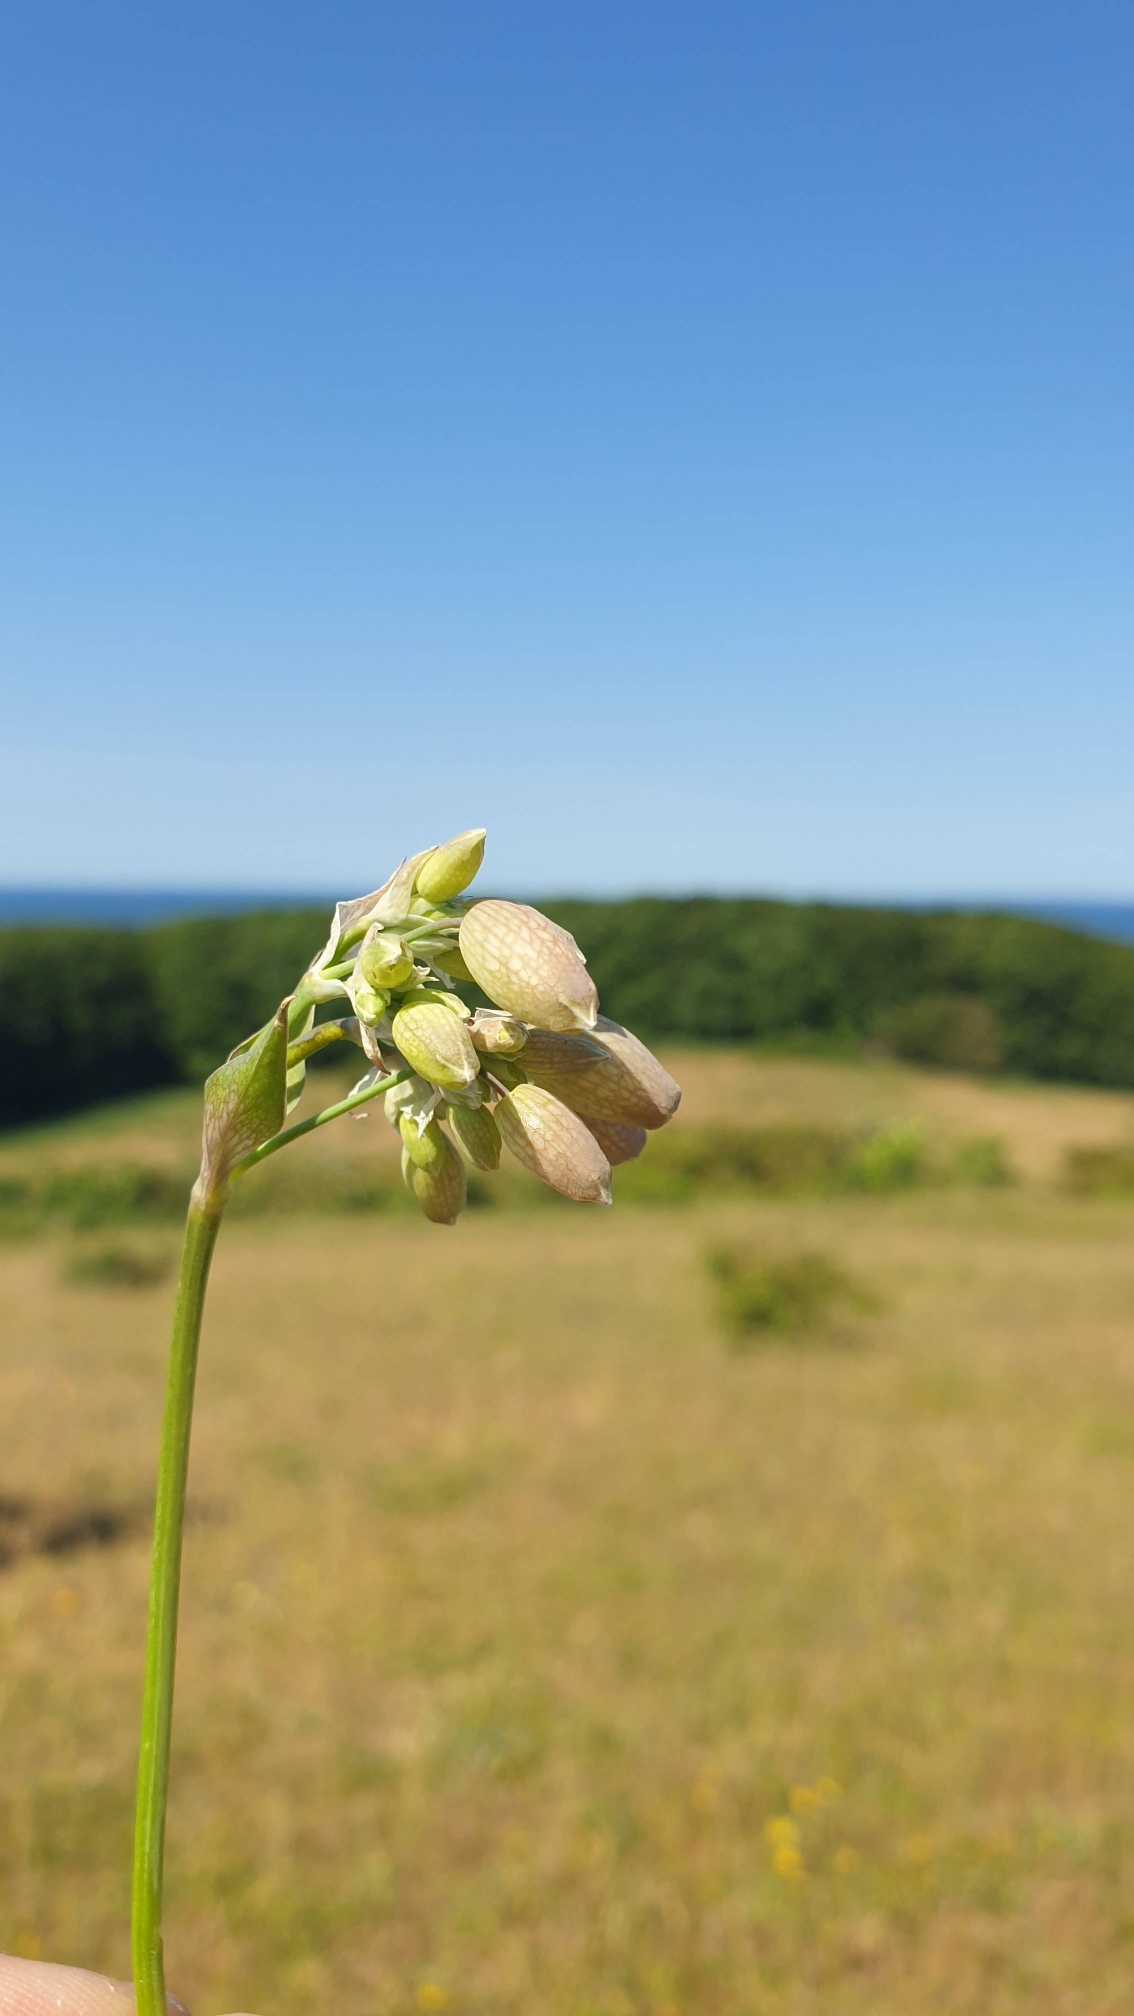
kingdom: Plantae
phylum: Tracheophyta
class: Magnoliopsida
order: Caryophyllales
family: Caryophyllaceae
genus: Silene
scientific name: Silene vulgaris
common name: Blæresmælde
